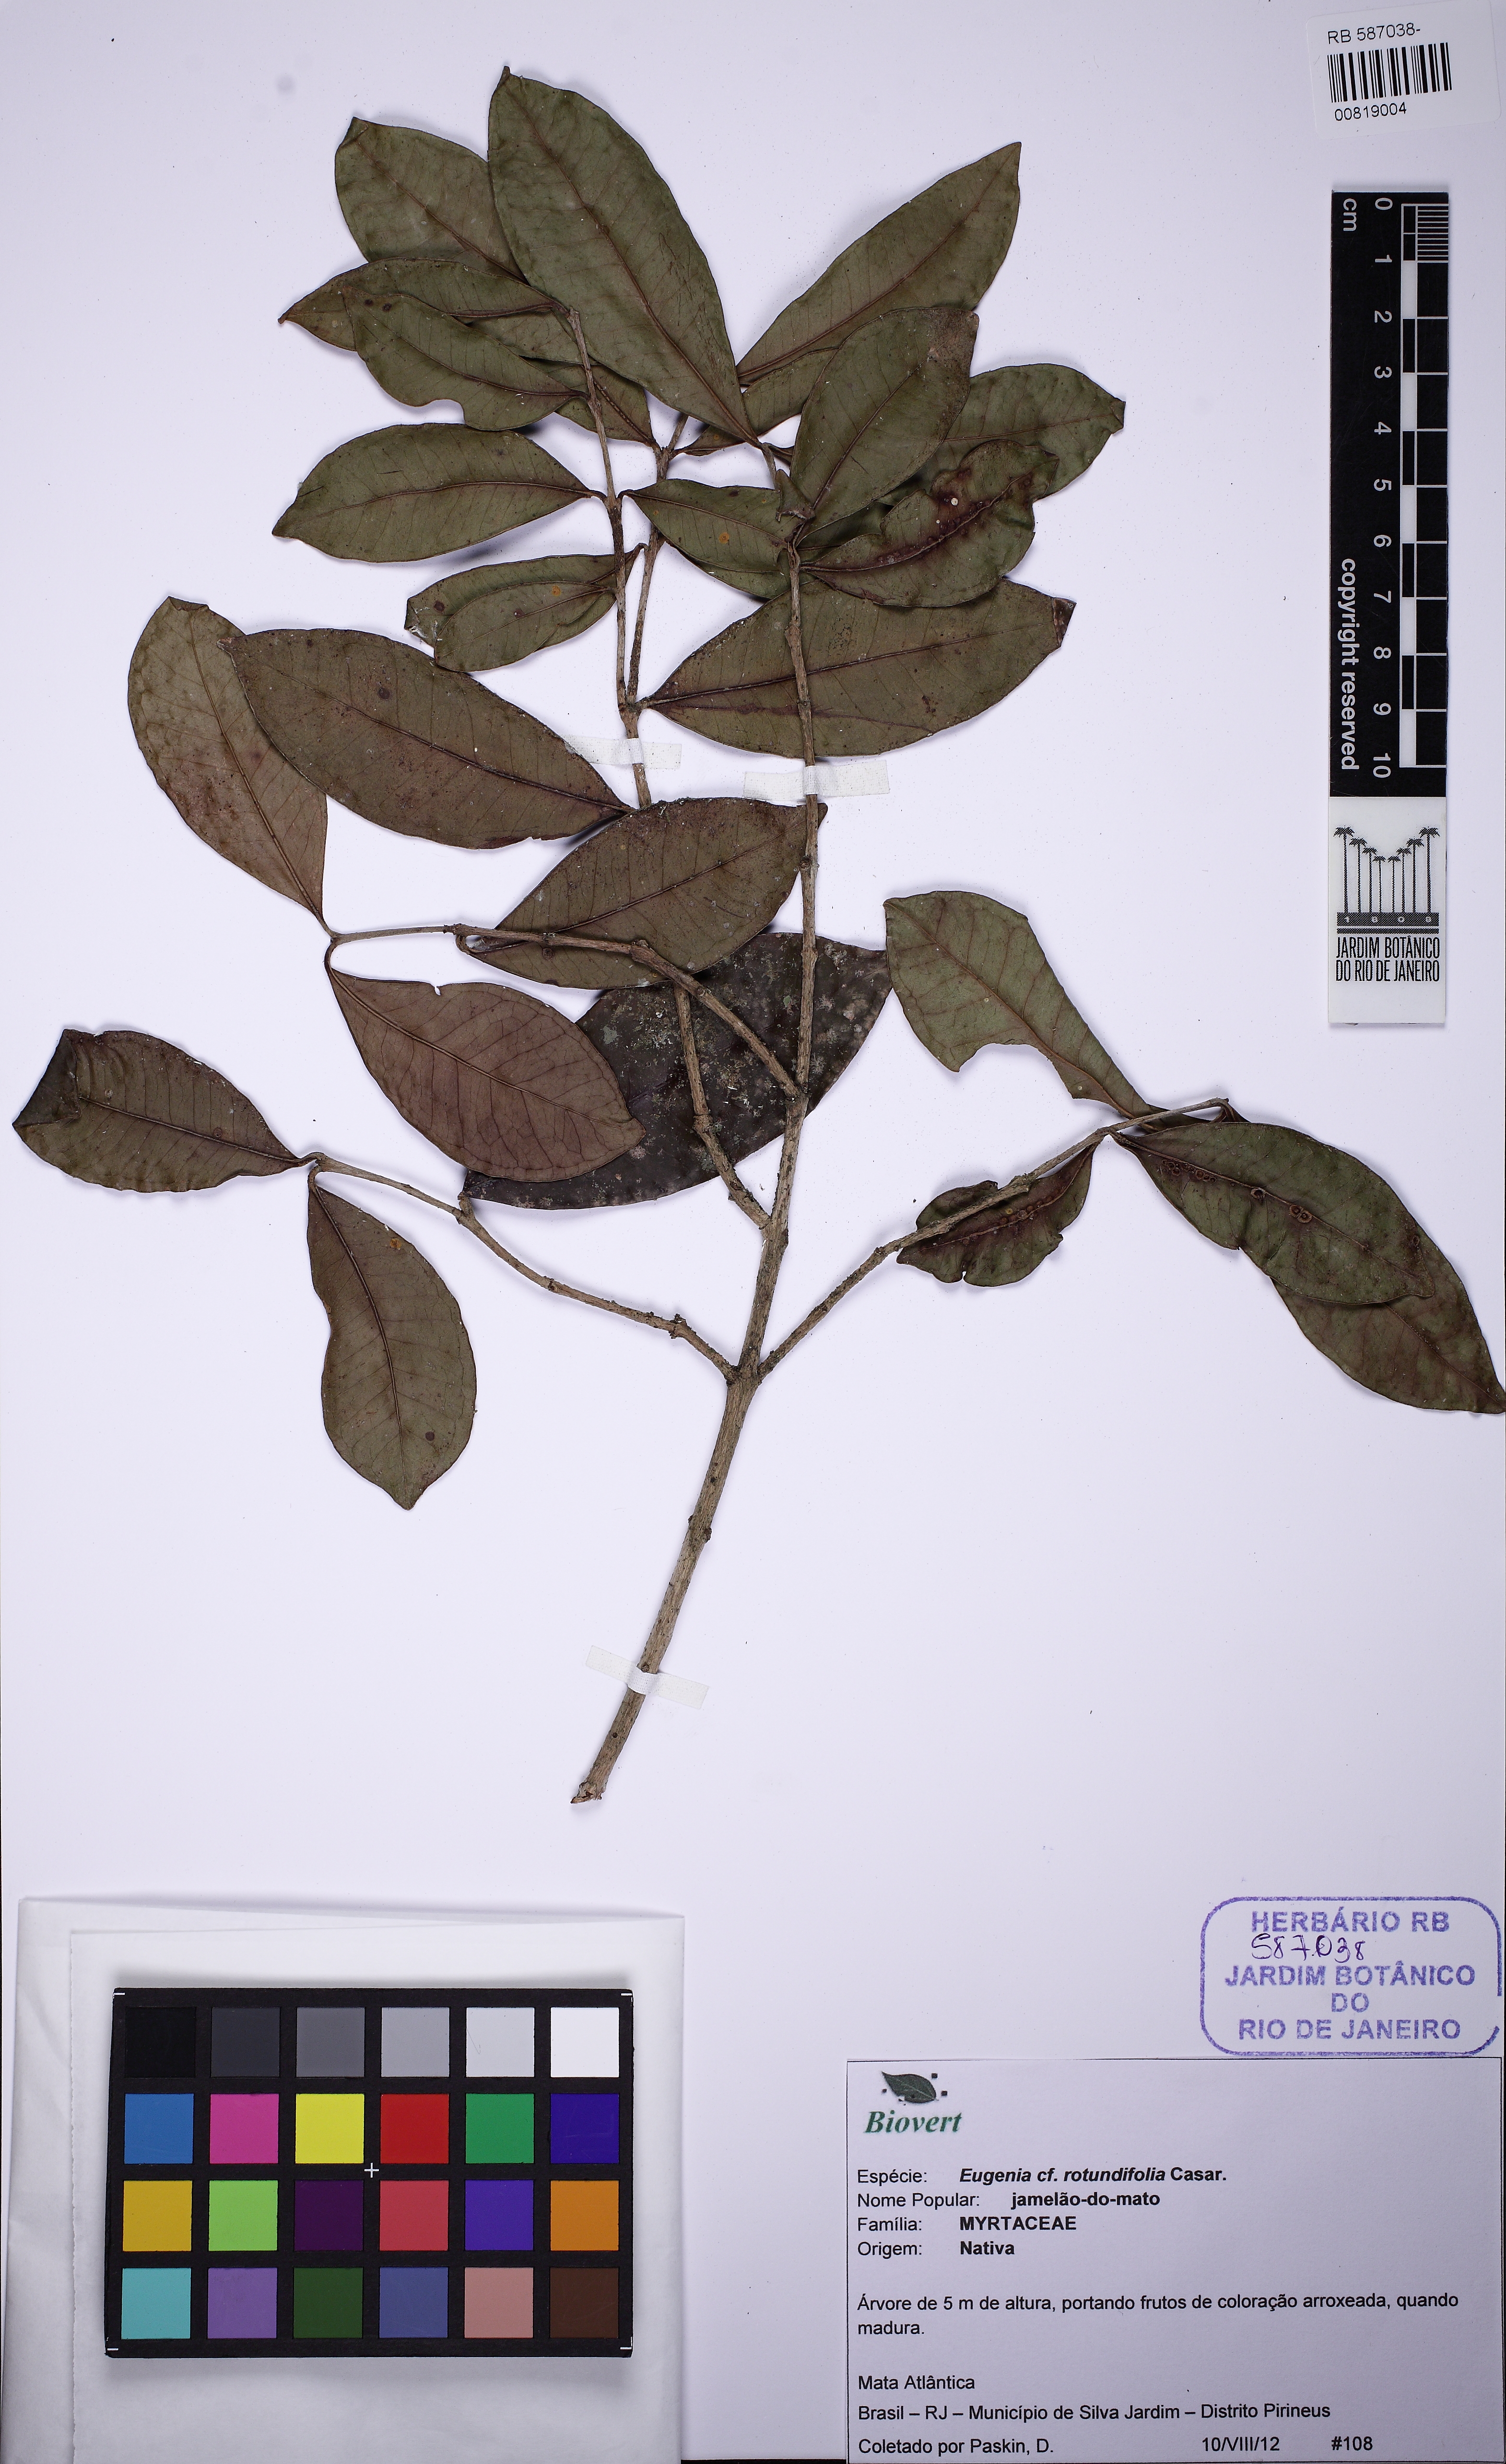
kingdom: Plantae
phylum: Tracheophyta
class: Magnoliopsida
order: Myrtales
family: Myrtaceae
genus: Syzygium
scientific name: Syzygium rotundifolium
